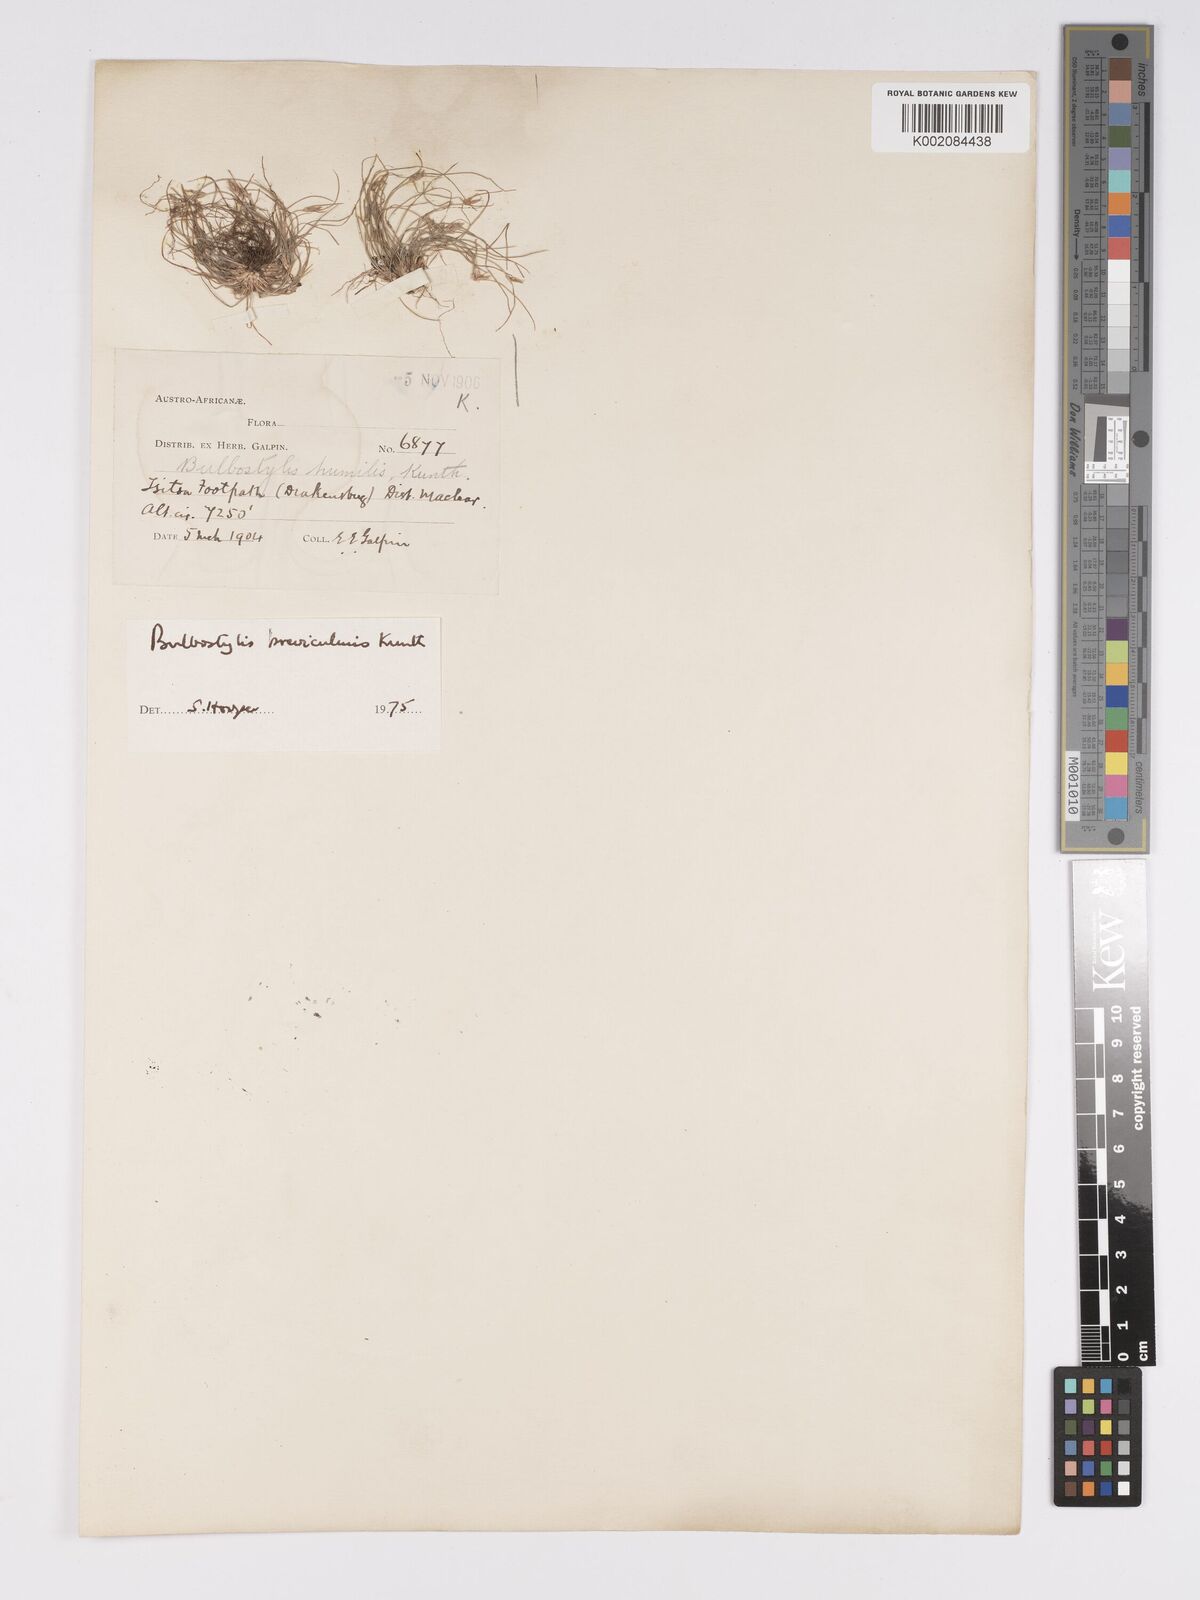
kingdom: Plantae
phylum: Tracheophyta
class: Liliopsida
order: Poales
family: Cyperaceae
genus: Bulbostylis
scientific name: Bulbostylis humilis
